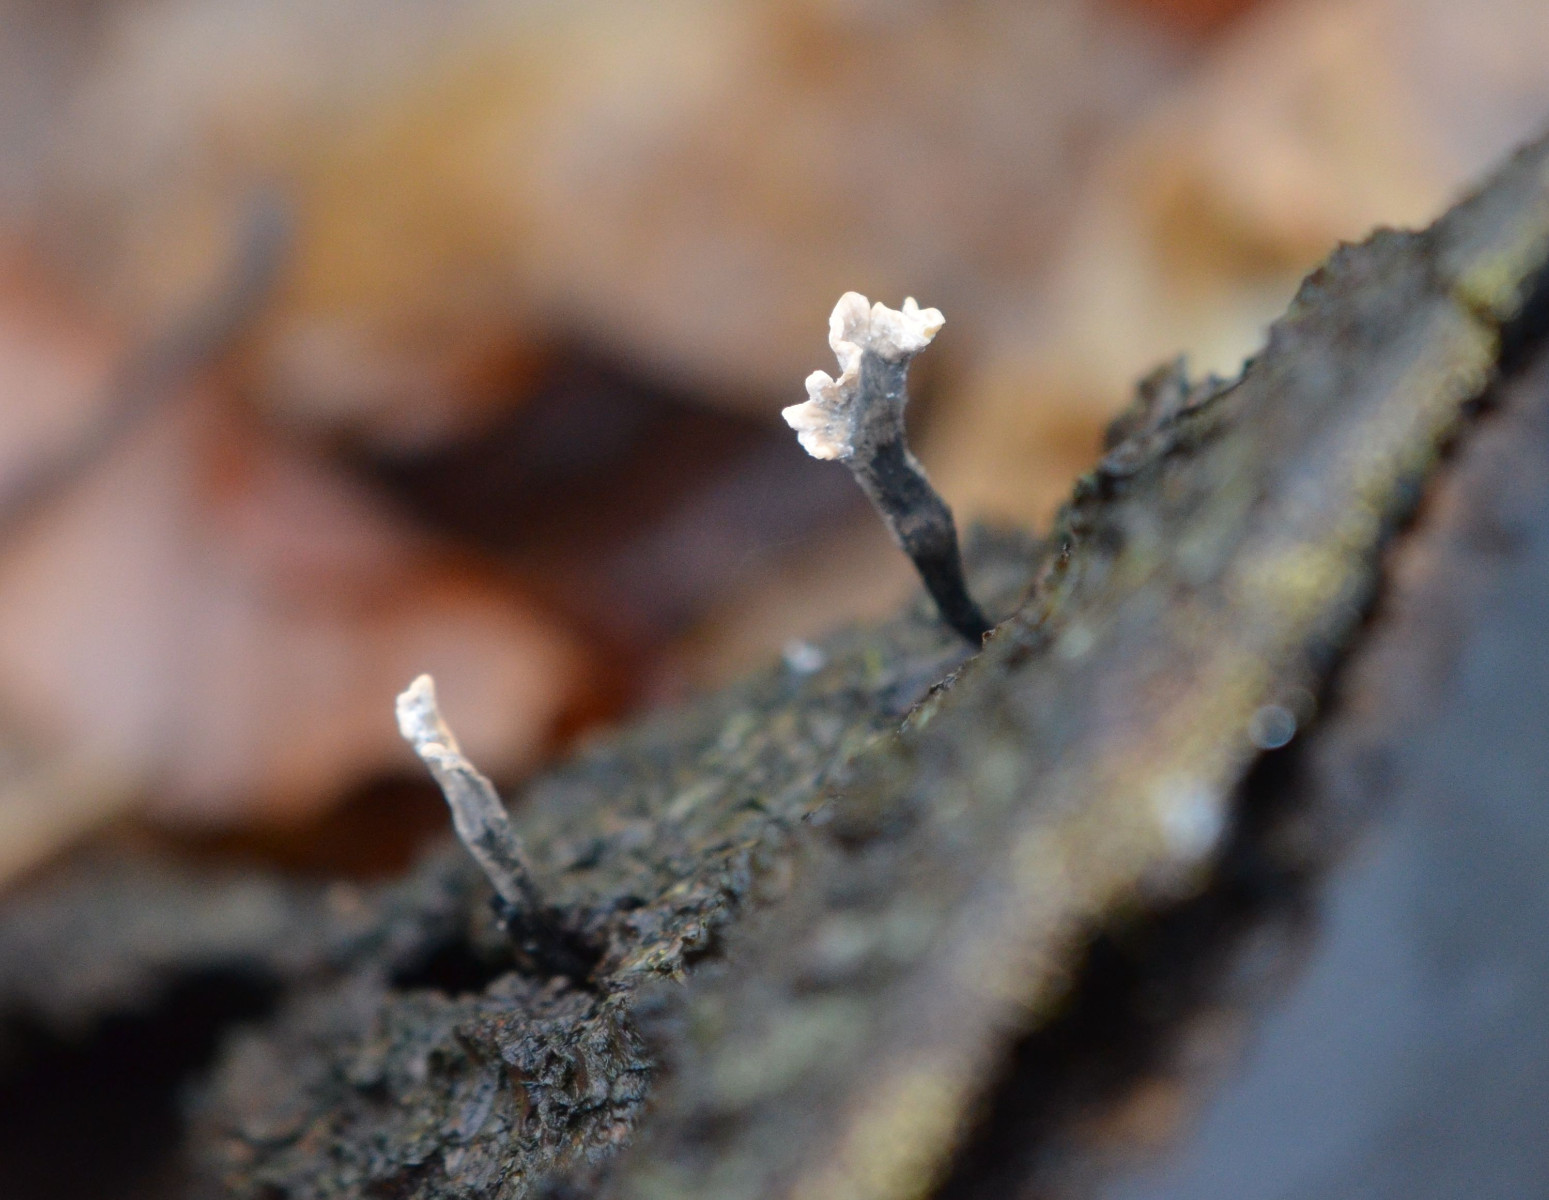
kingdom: Fungi
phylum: Ascomycota
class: Sordariomycetes
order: Xylariales
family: Xylariaceae
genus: Xylaria
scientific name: Xylaria hypoxylon
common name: grenet stødsvamp
